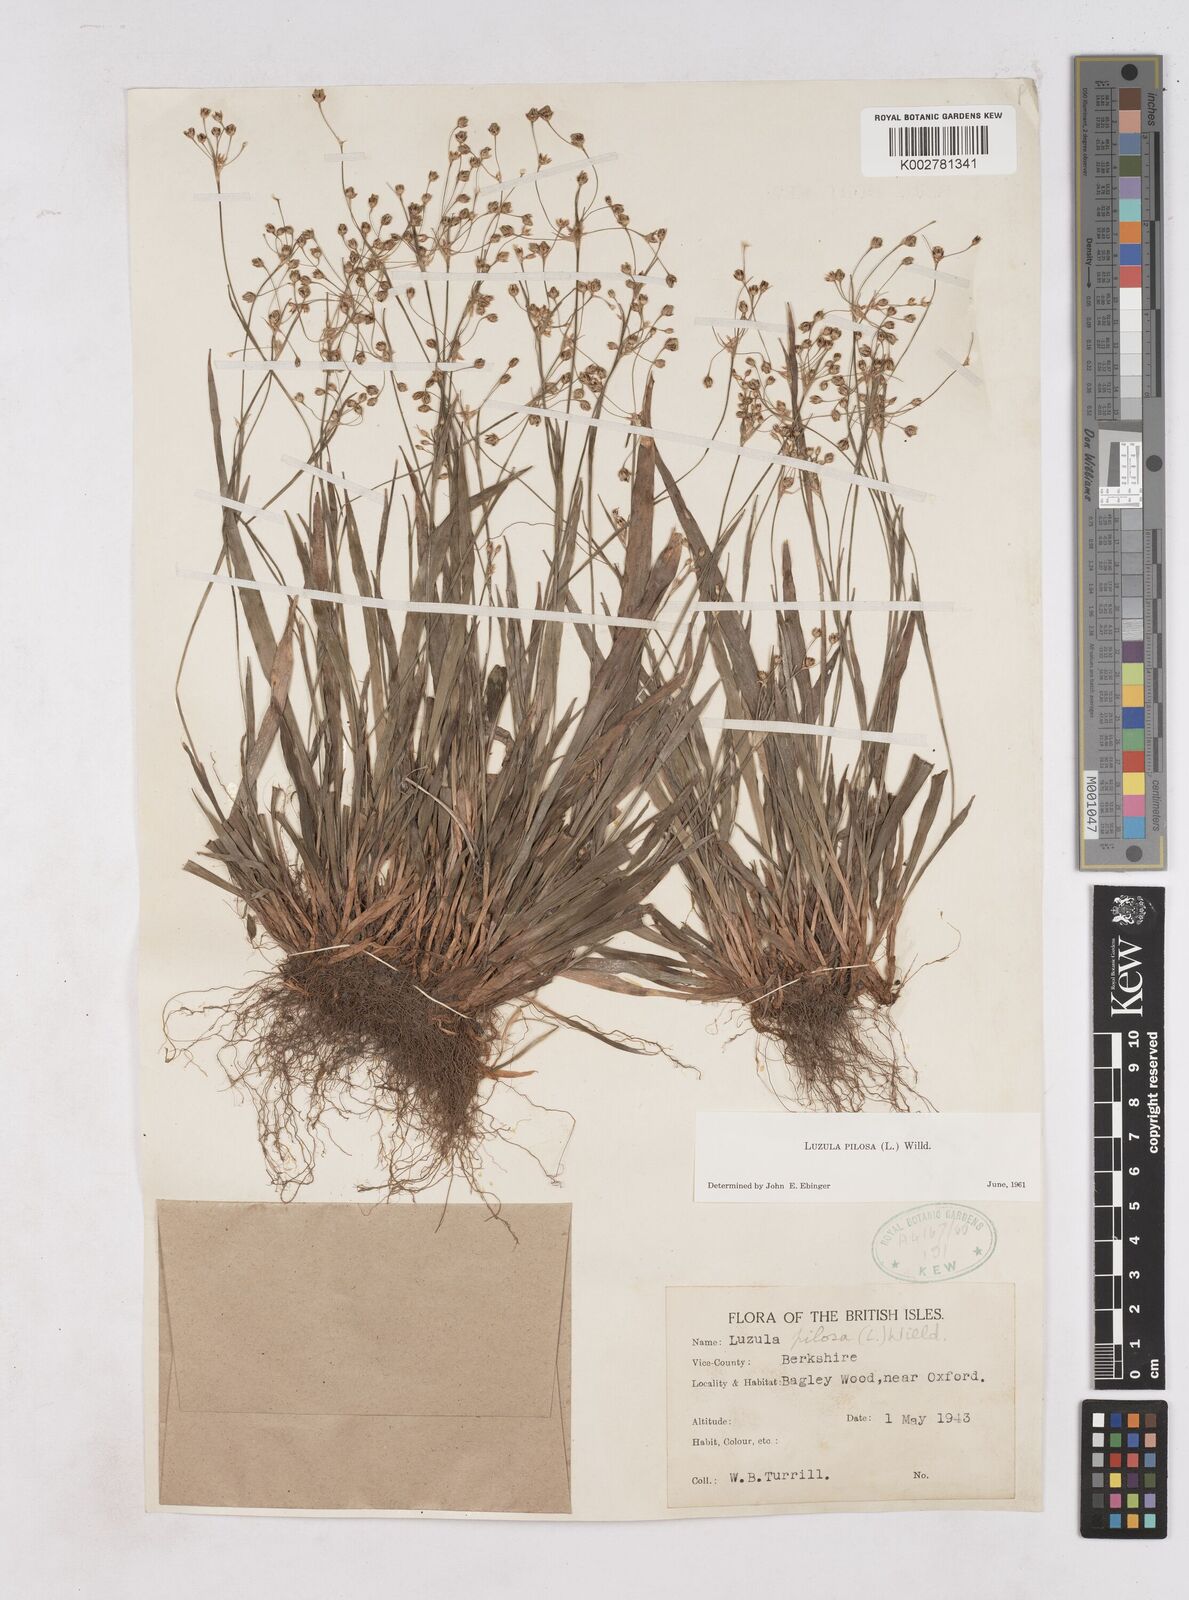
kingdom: Plantae
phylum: Tracheophyta
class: Liliopsida
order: Poales
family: Juncaceae
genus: Luzula
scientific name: Luzula pilosa
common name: Hairy wood-rush
